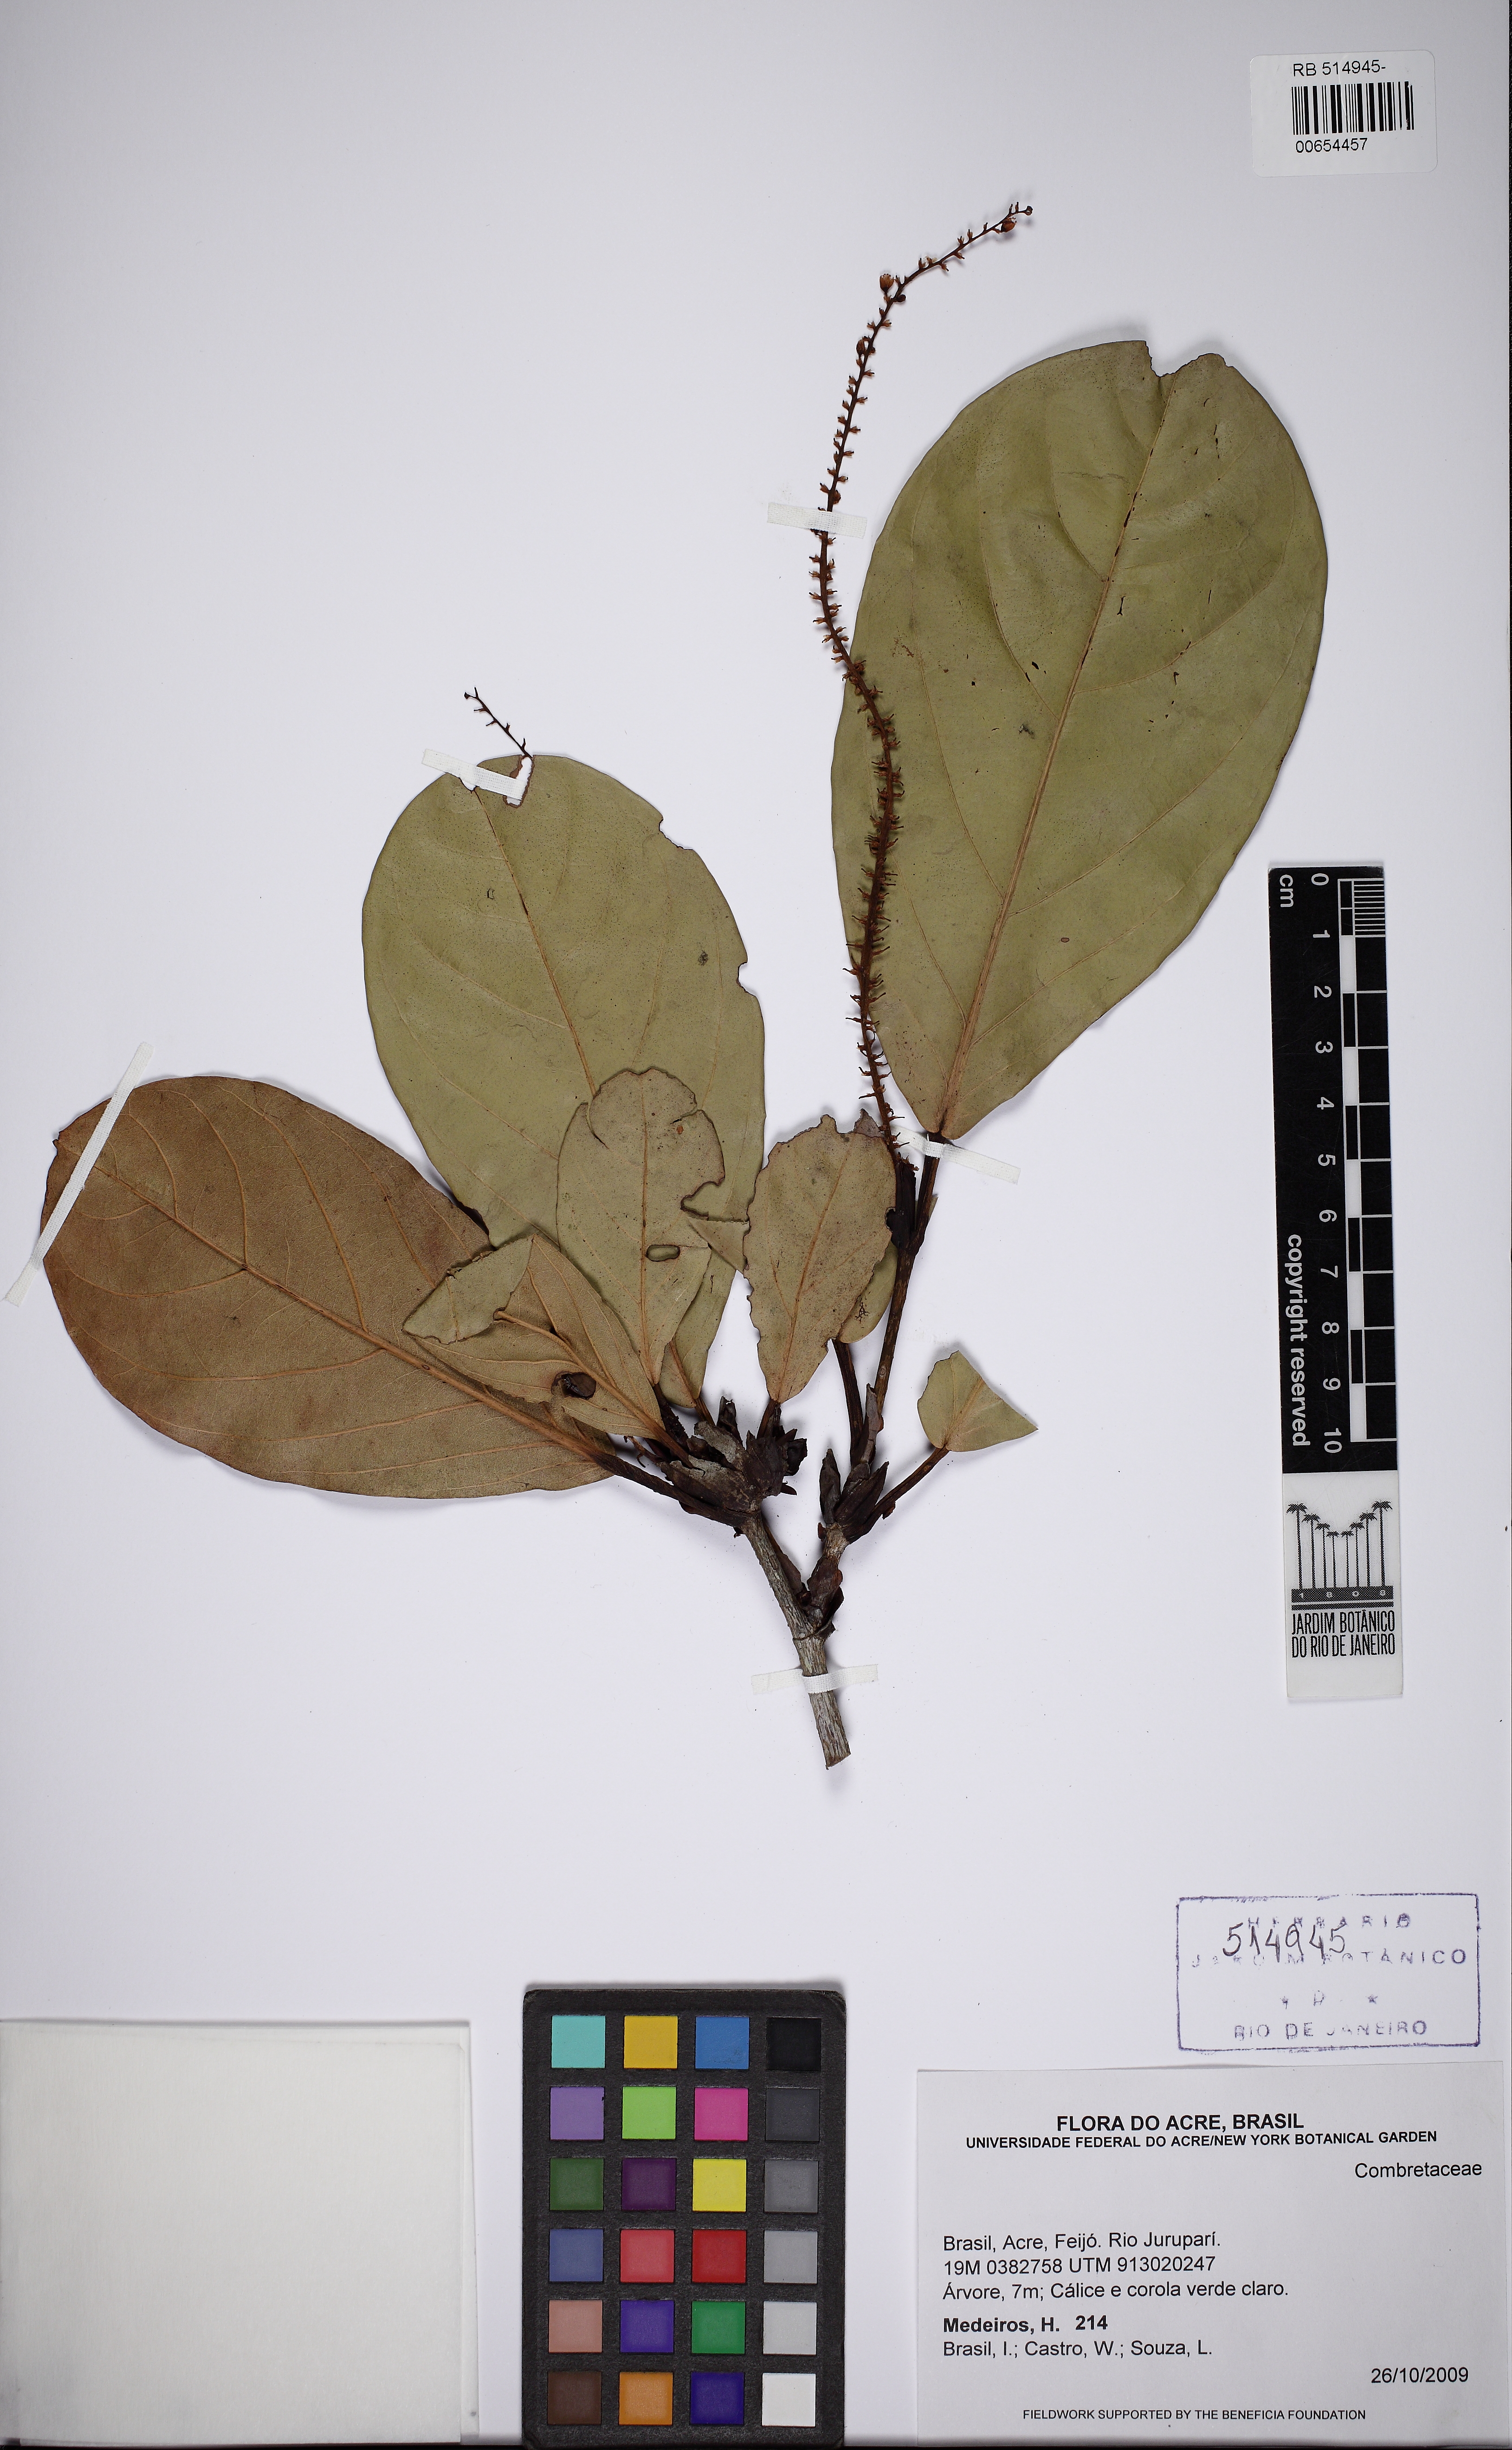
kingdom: Plantae
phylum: Tracheophyta
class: Magnoliopsida
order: Caryophyllales
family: Polygonaceae
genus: Coccoloba
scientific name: Coccoloba
